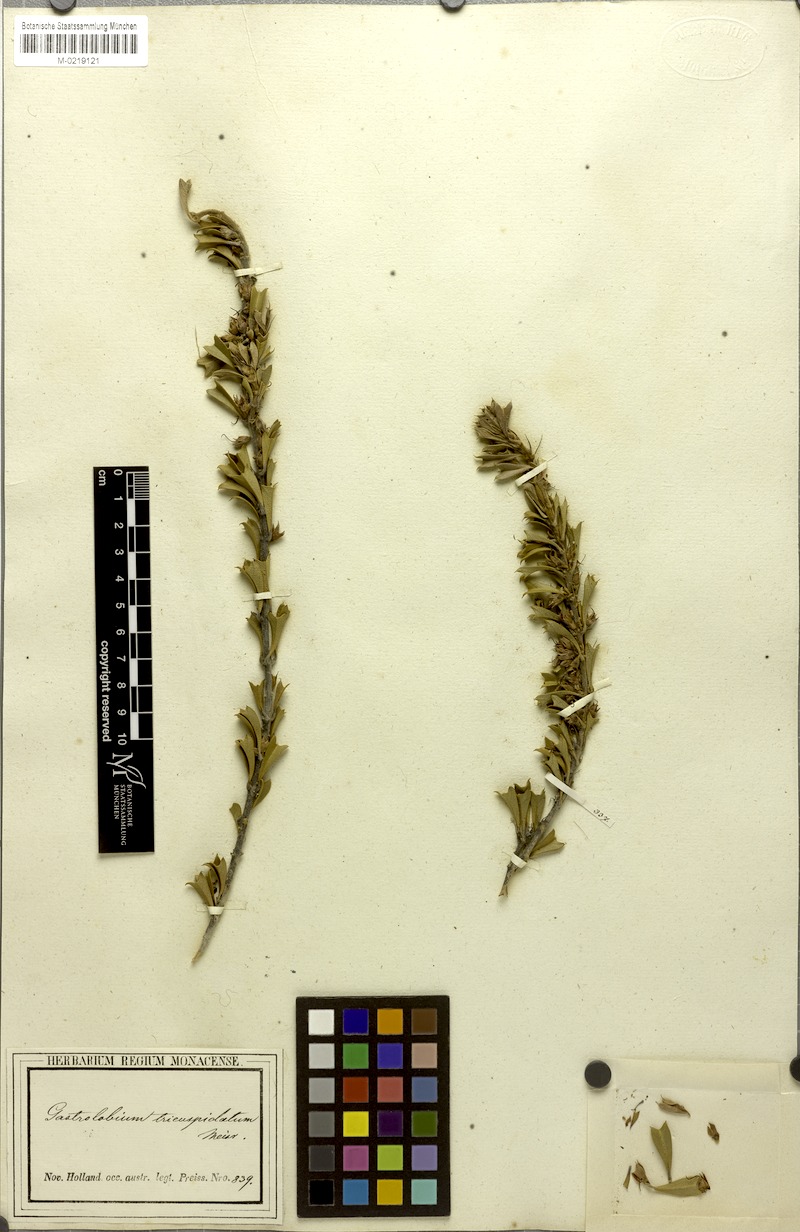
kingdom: Plantae
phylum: Tracheophyta
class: Magnoliopsida
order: Fabales
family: Fabaceae
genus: Gastrolobium
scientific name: Gastrolobium tricuspidatum
